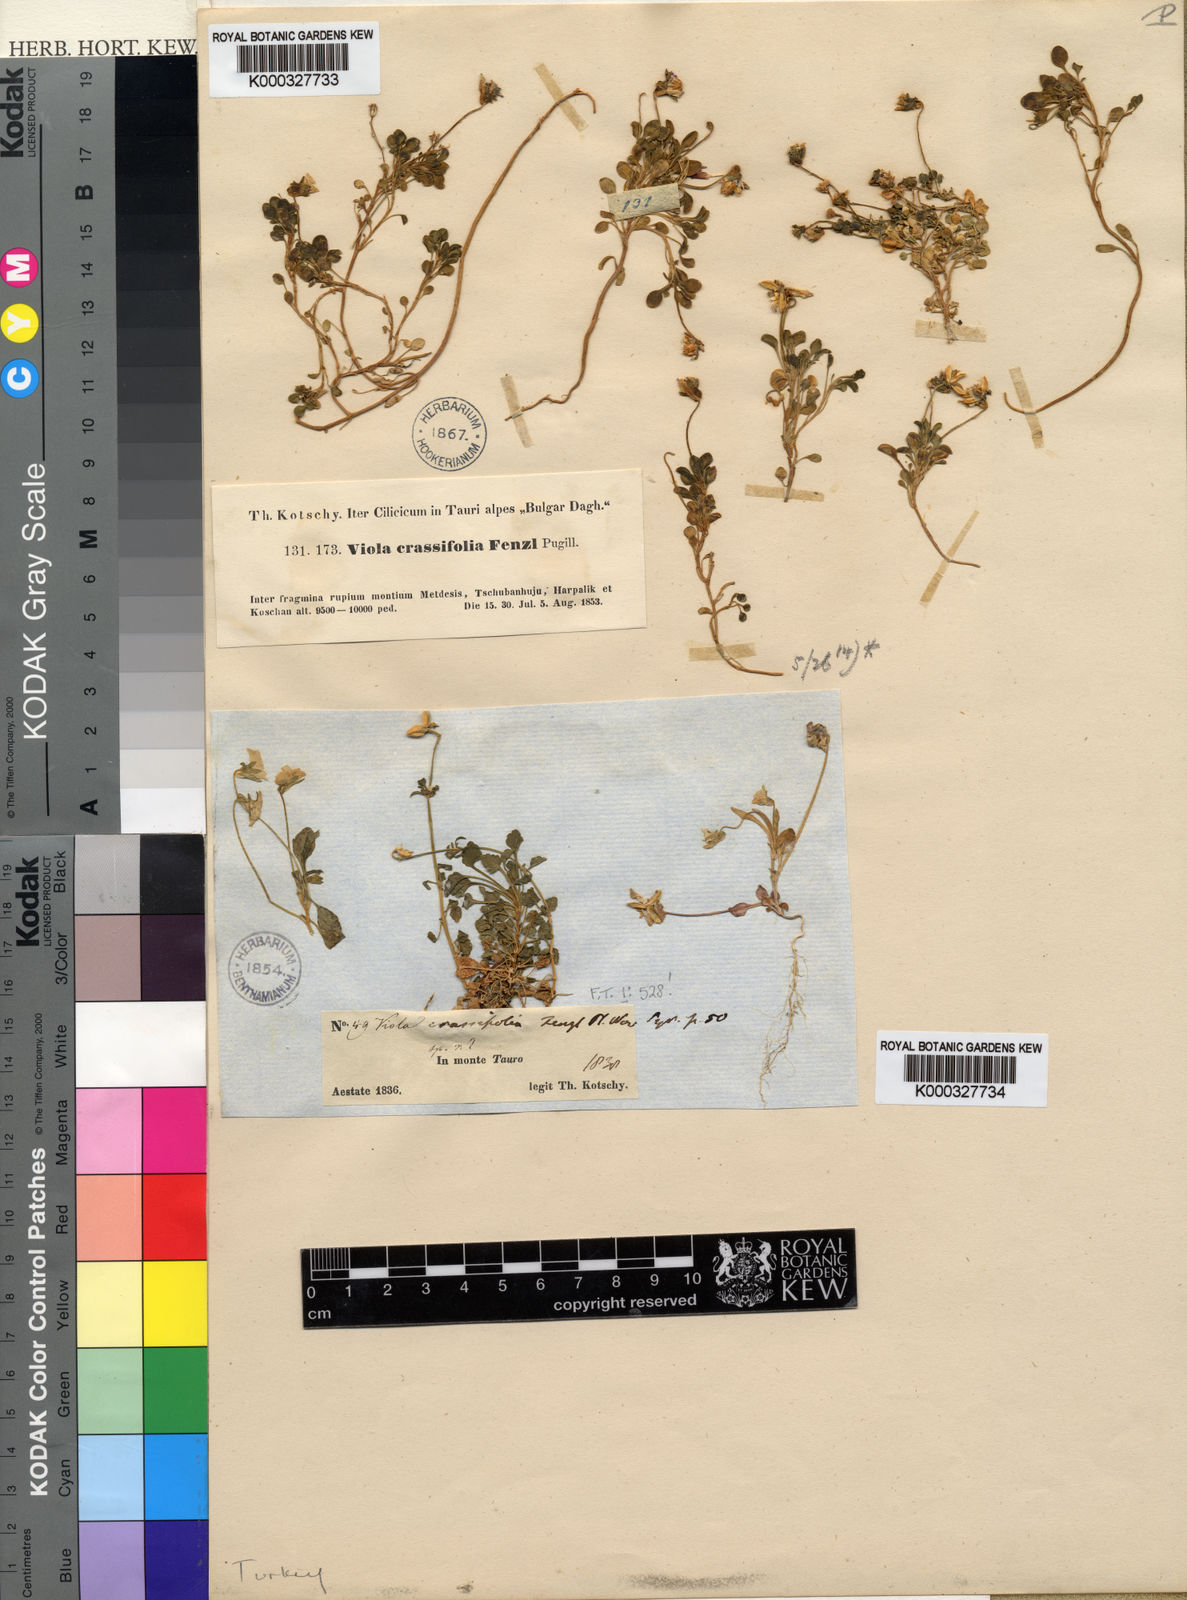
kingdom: Plantae
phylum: Tracheophyta
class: Magnoliopsida
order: Malpighiales
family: Violaceae
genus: Viola
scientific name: Viola crassifolia
